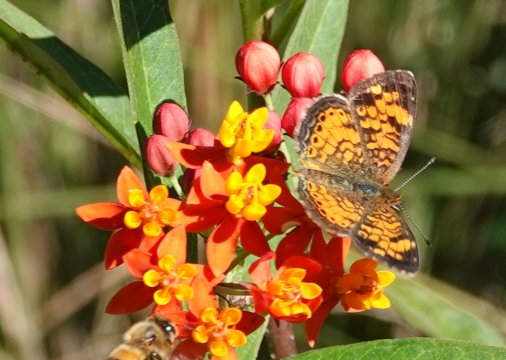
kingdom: Animalia
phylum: Arthropoda
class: Insecta
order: Lepidoptera
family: Nymphalidae
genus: Phyciodes
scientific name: Phyciodes tharos
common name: Pearl Crescent
